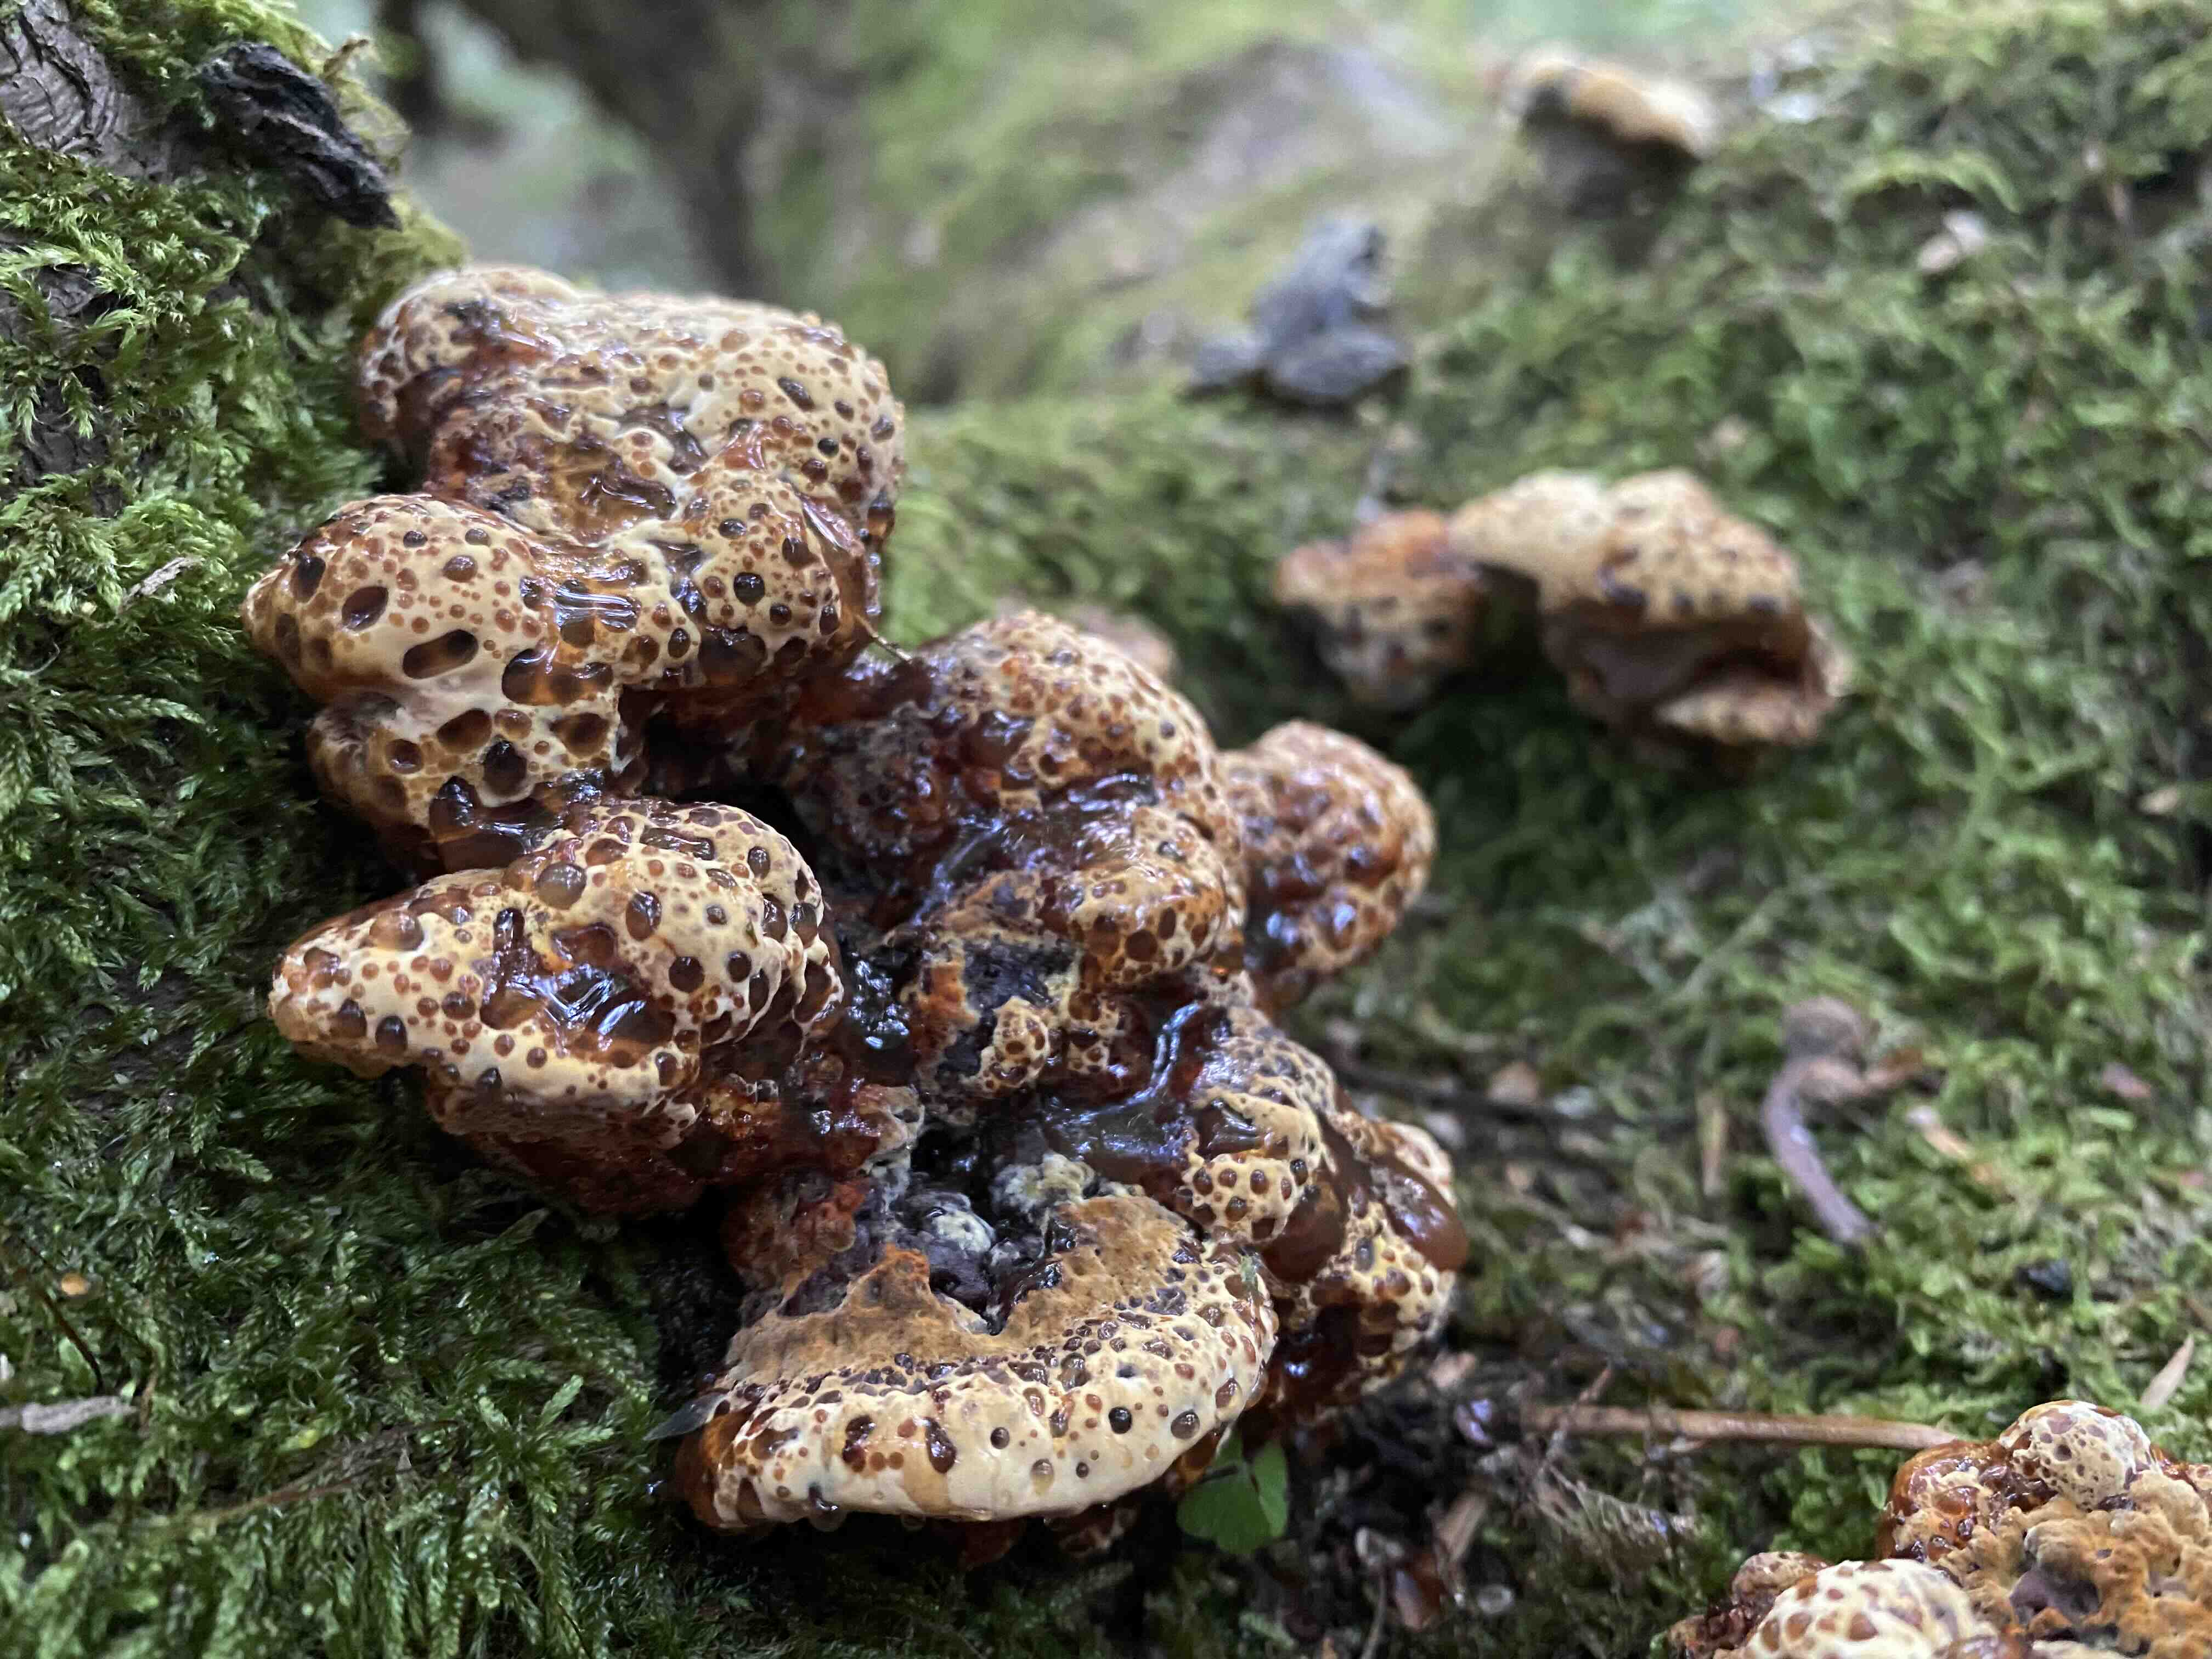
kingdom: Fungi
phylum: Basidiomycota
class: Agaricomycetes
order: Hymenochaetales
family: Hymenochaetaceae
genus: Pseudoinonotus
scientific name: Pseudoinonotus dryadeus
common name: ege-spejlporesvamp
